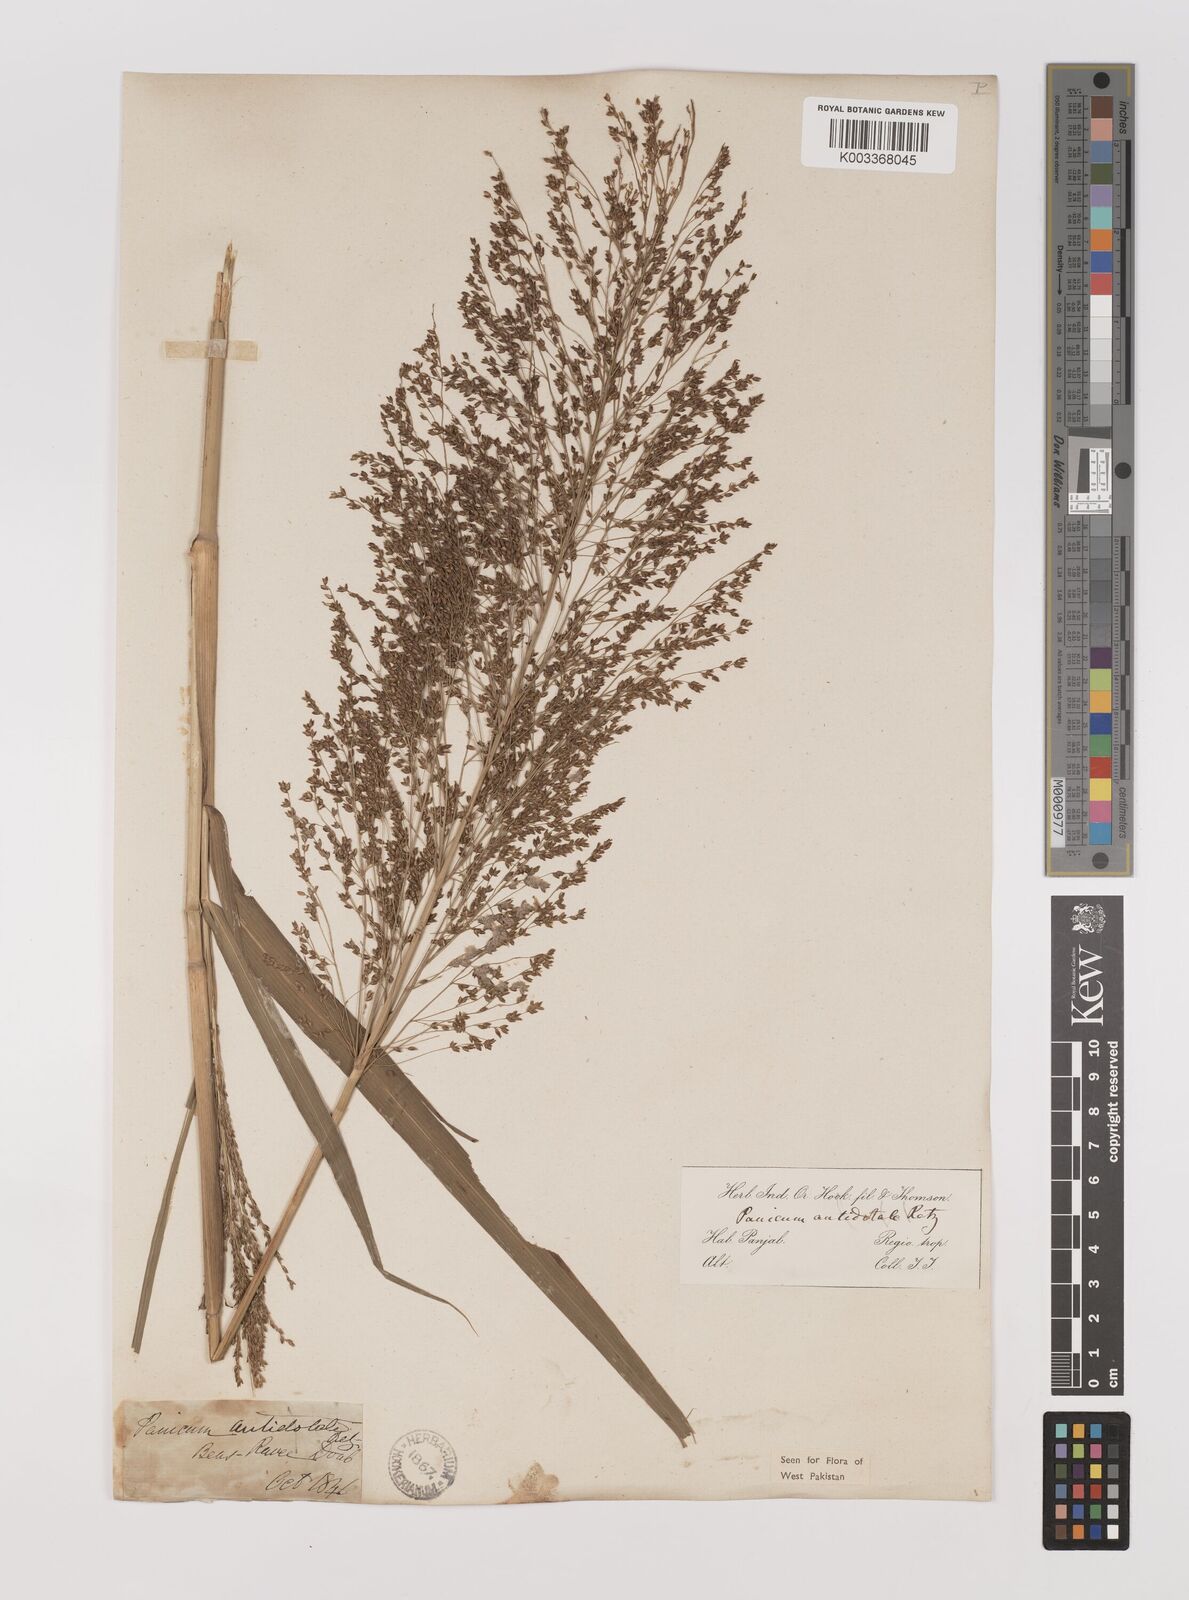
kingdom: Plantae
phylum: Tracheophyta
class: Liliopsida
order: Poales
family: Poaceae
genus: Panicum
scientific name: Panicum antidotale
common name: Blue panicum
